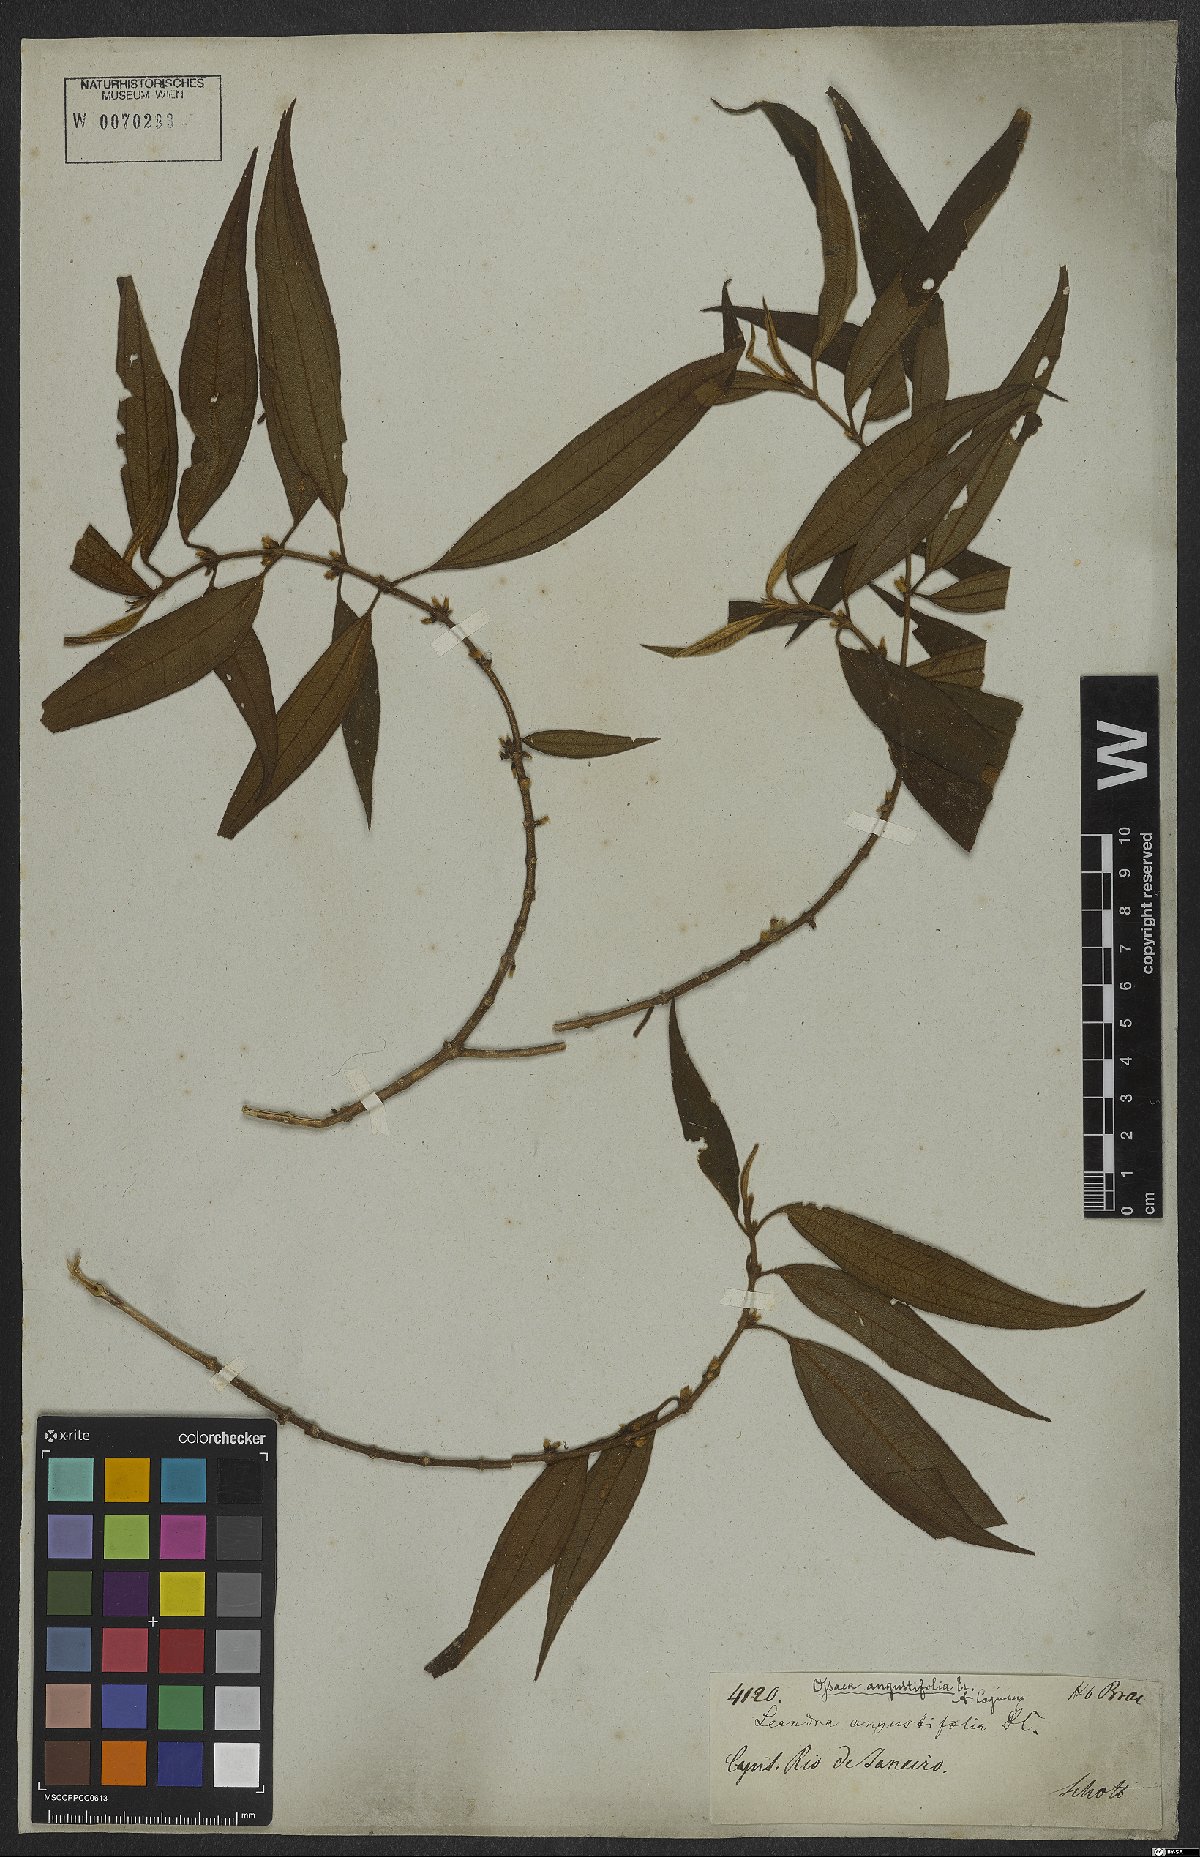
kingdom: Plantae
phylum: Tracheophyta
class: Magnoliopsida
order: Myrtales
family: Melastomataceae
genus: Miconia
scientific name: Miconia corcovadensis
